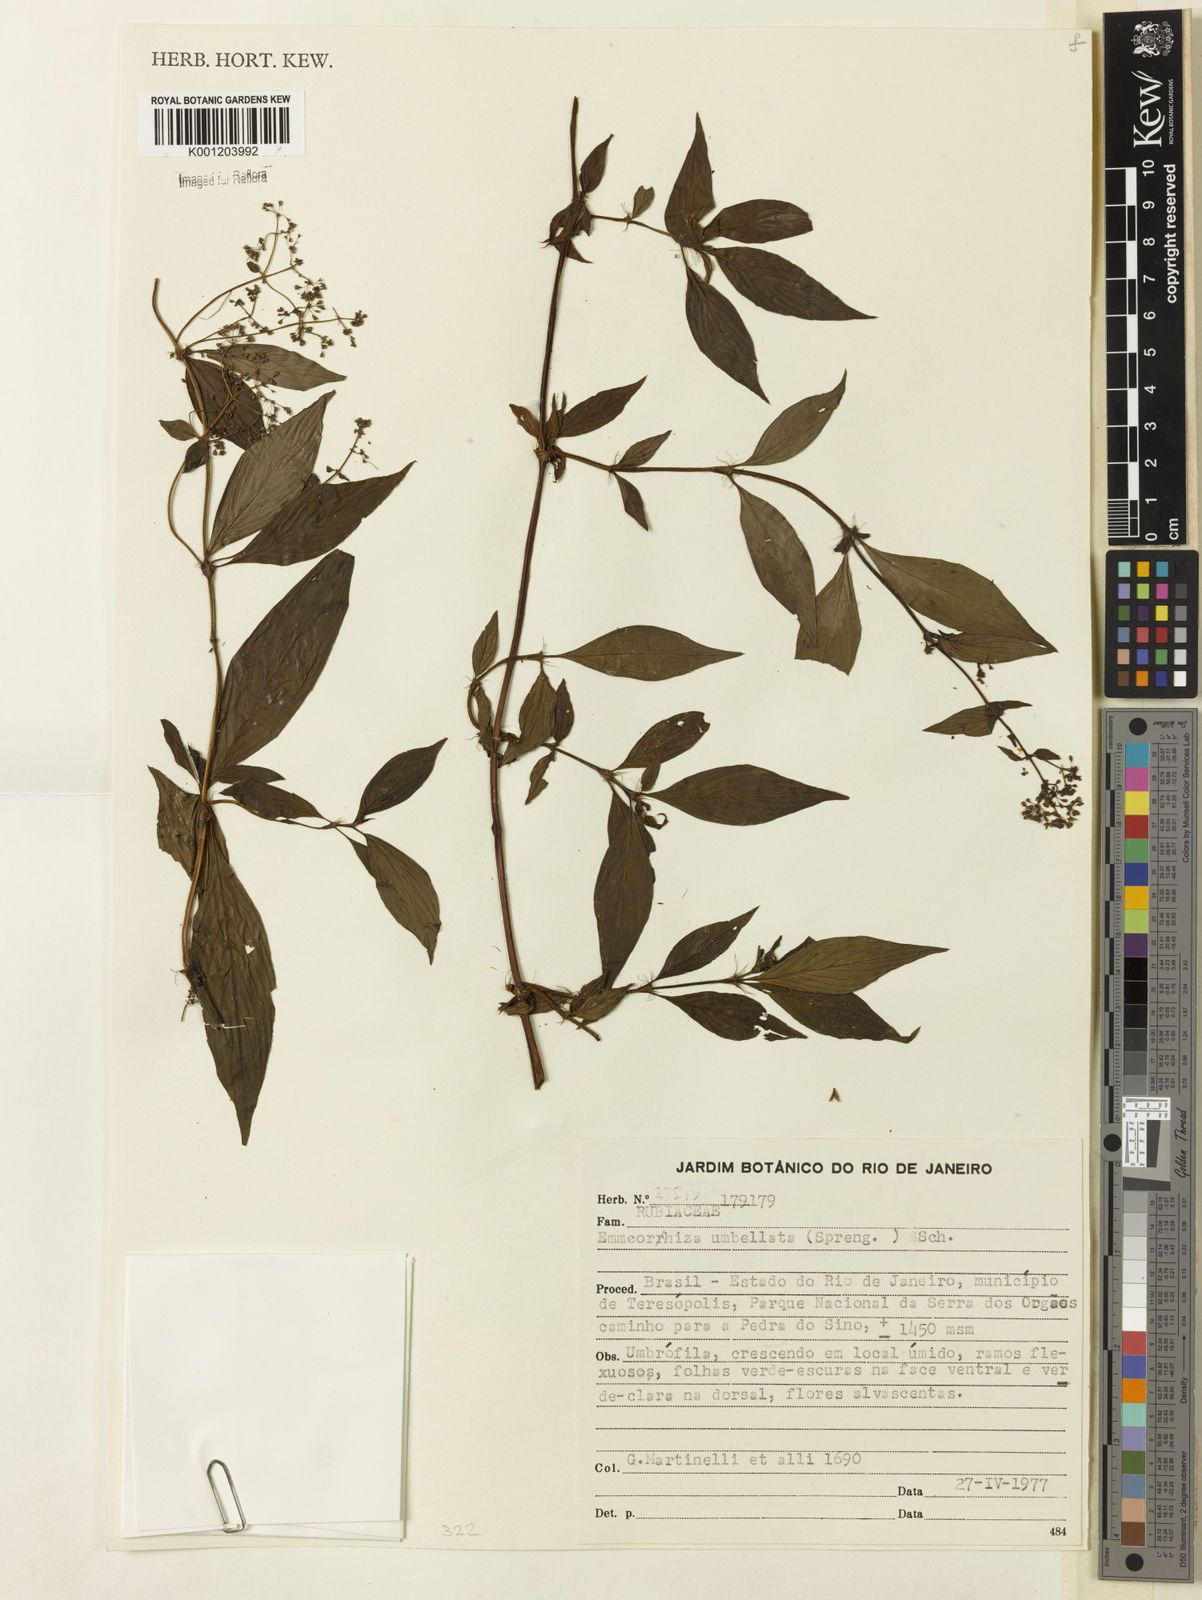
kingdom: Plantae
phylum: Tracheophyta
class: Magnoliopsida
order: Gentianales
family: Rubiaceae
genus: Emmeorhiza
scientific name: Emmeorhiza umbellata
